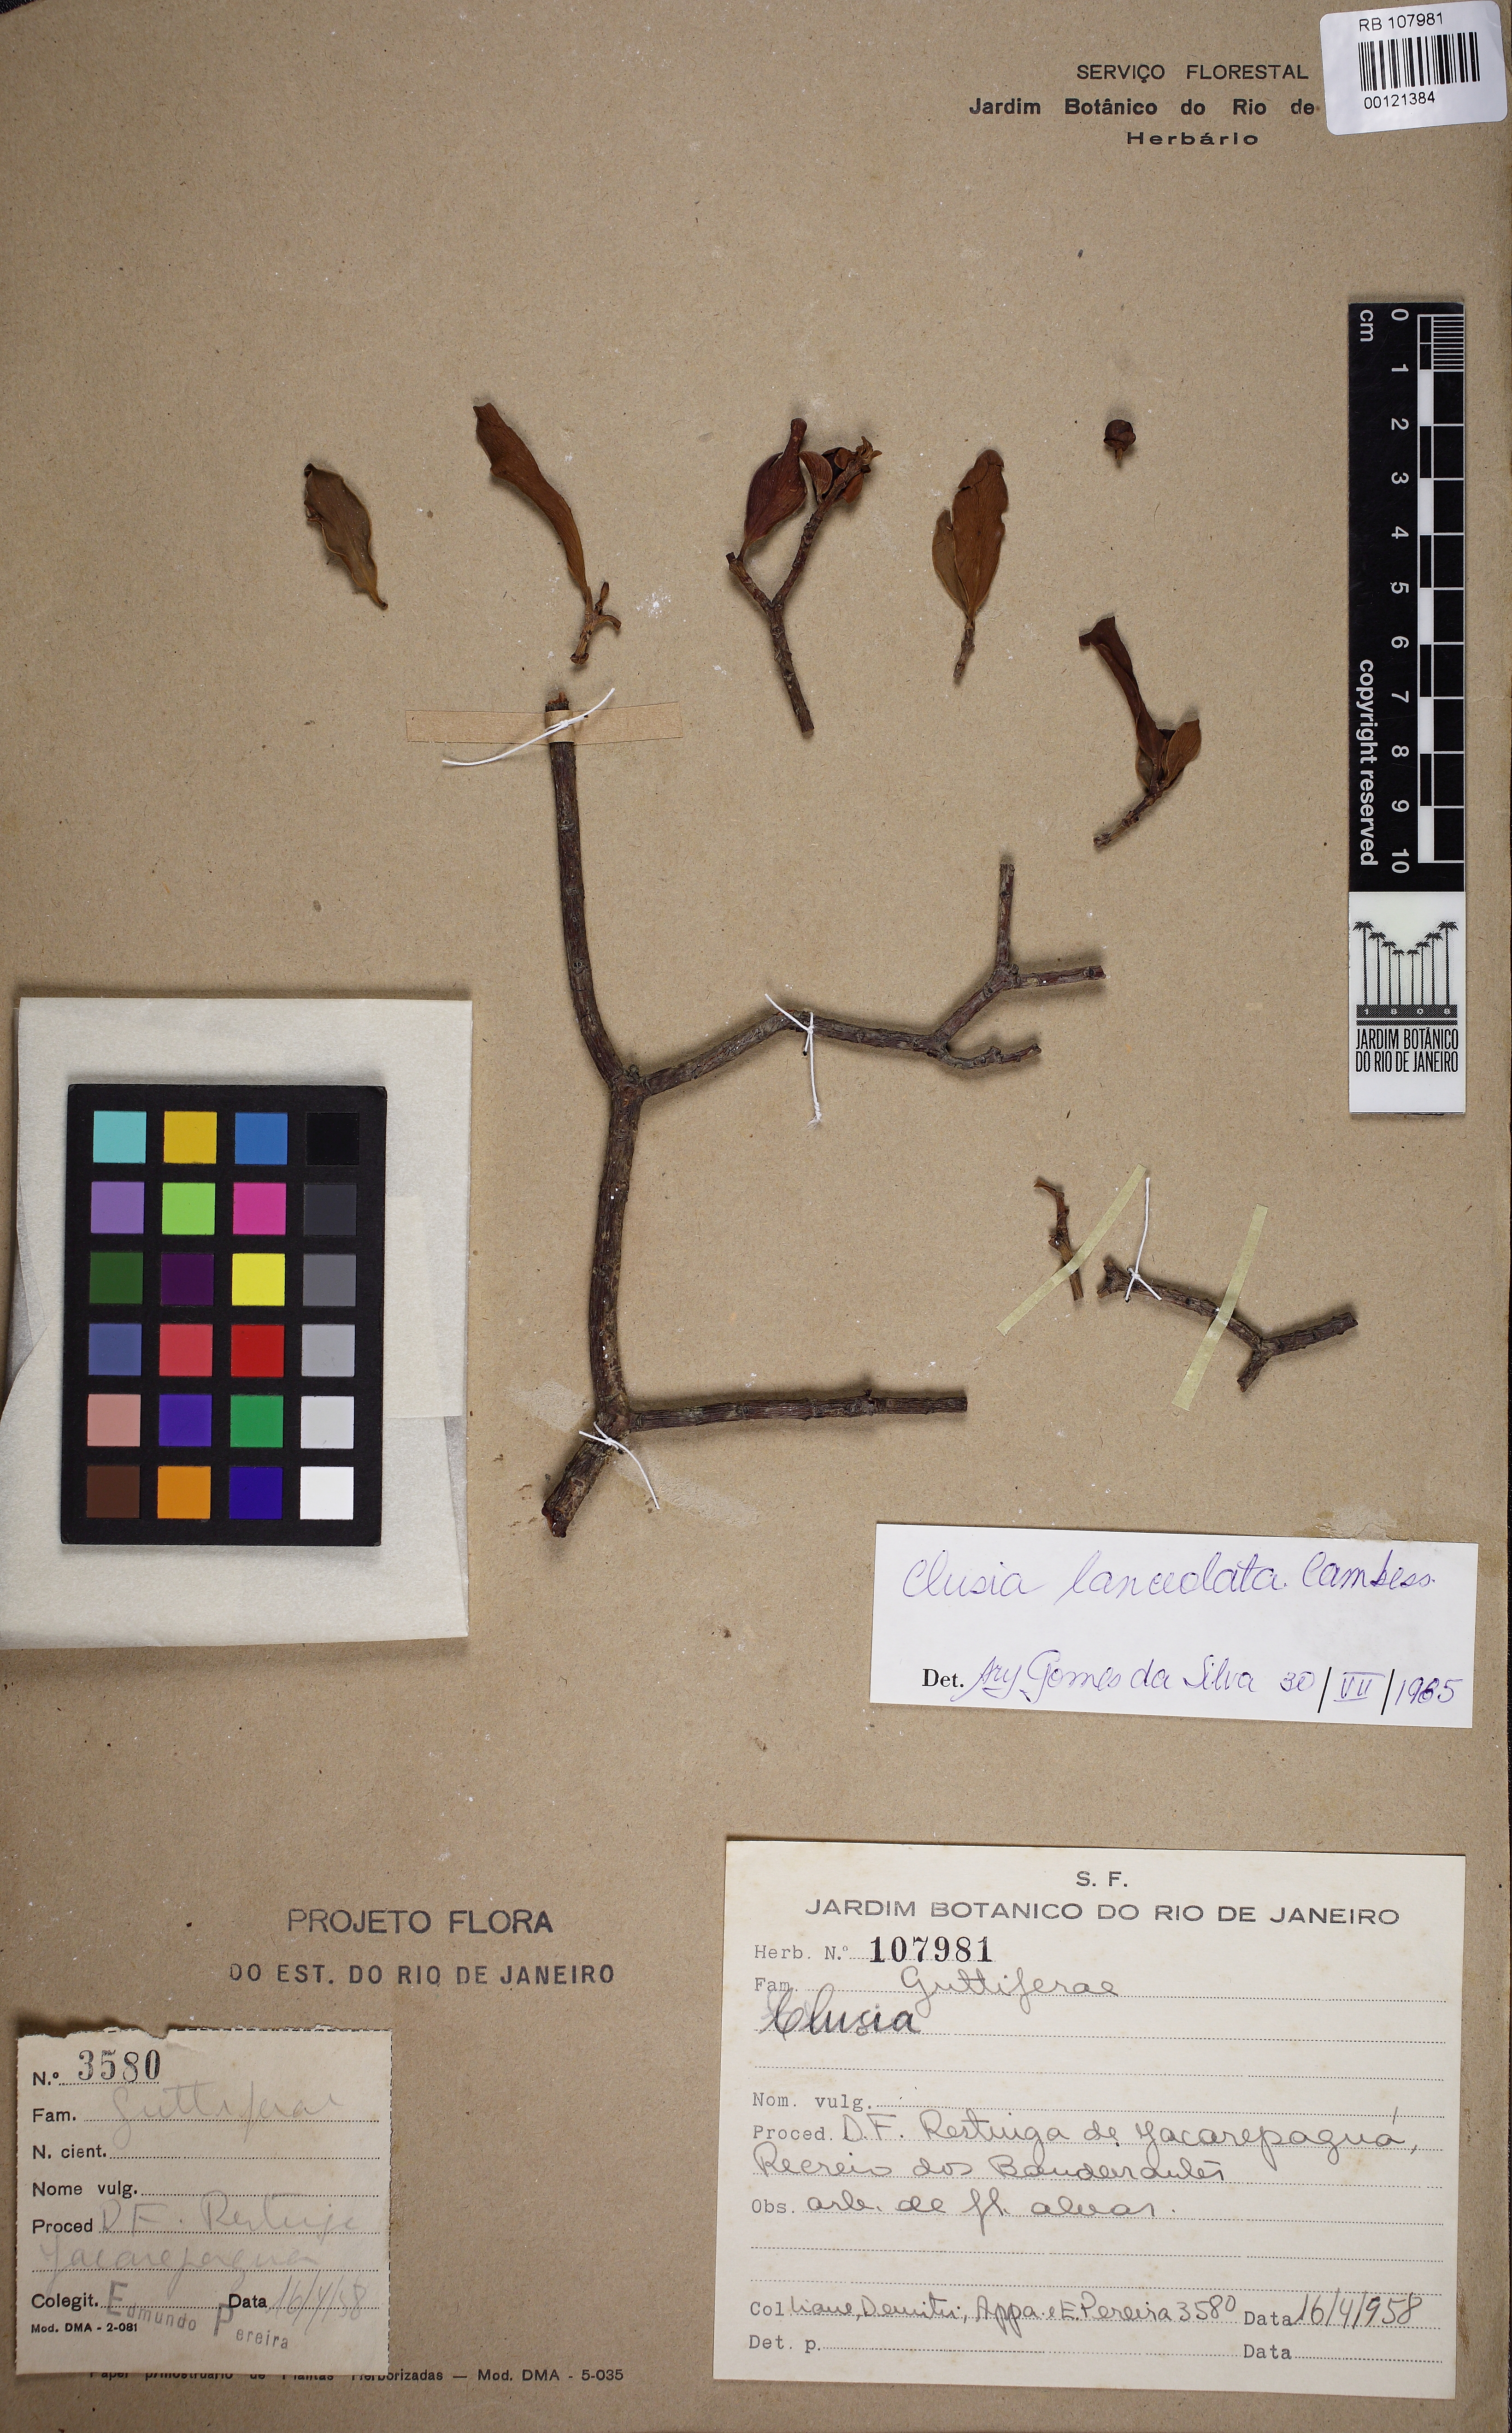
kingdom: Plantae
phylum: Tracheophyta
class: Magnoliopsida
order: Malpighiales
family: Clusiaceae
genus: Clusia
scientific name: Clusia lanceolata
